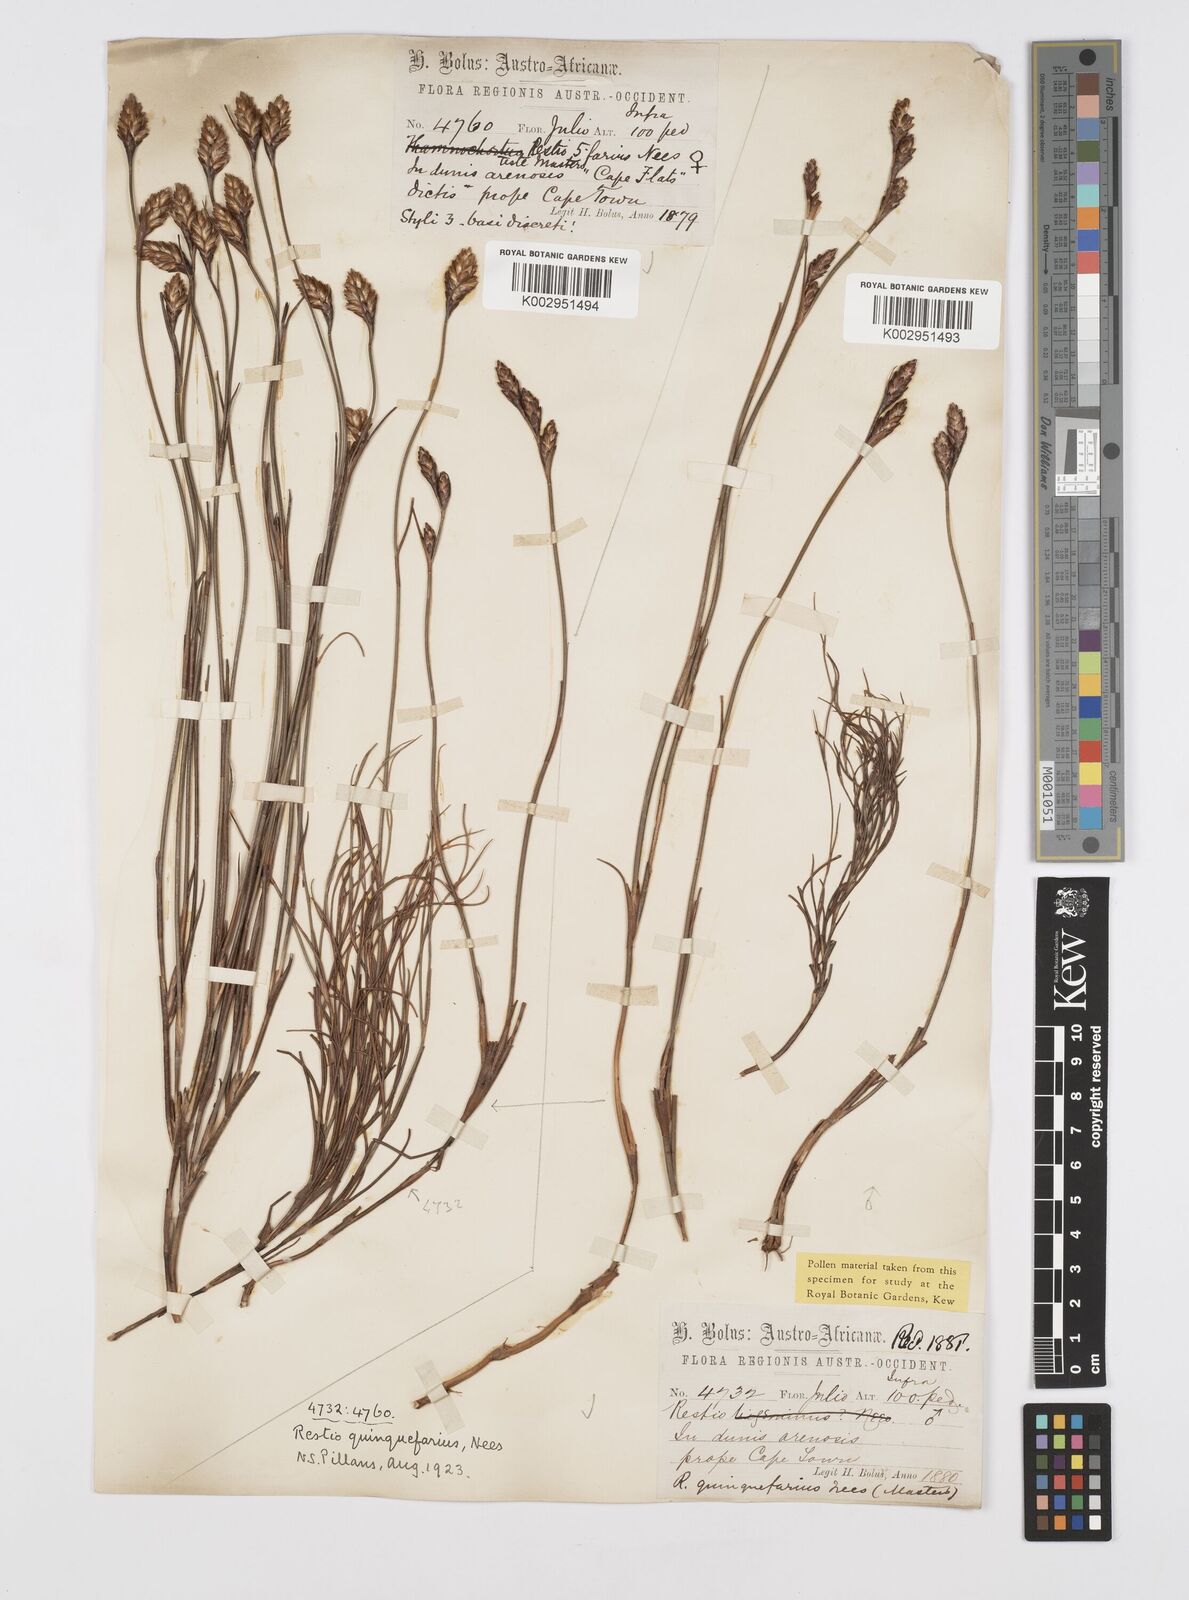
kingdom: Plantae
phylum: Tracheophyta
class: Liliopsida
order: Poales
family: Restionaceae
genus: Restio
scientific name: Restio quinquefarius
